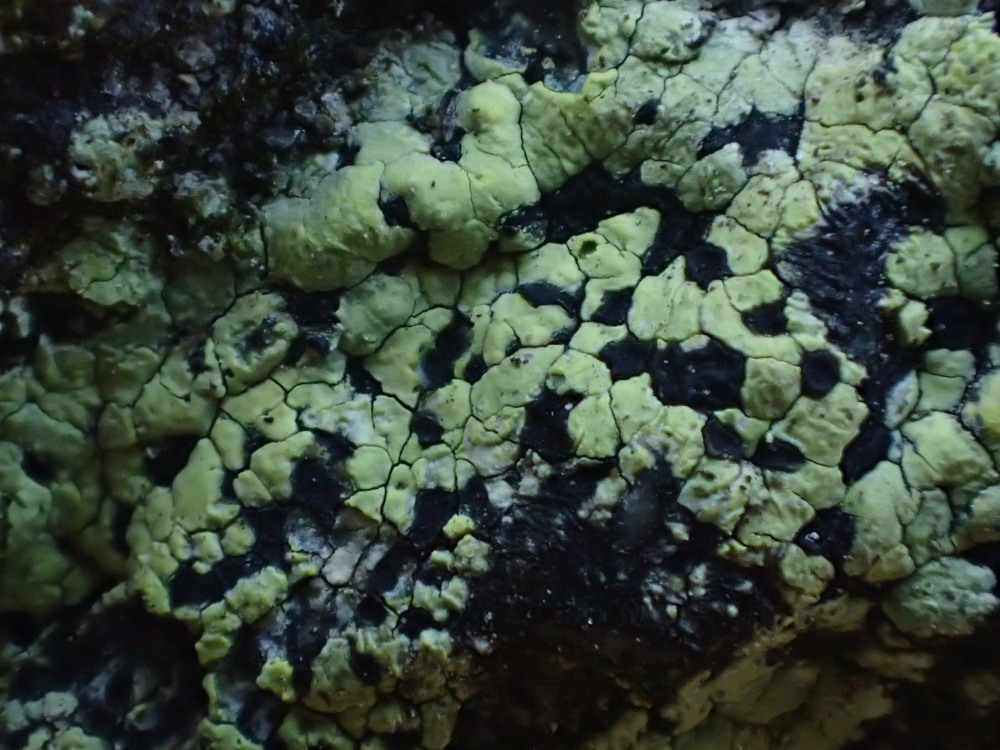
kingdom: Fungi
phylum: Ascomycota
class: Lecanoromycetes
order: Rhizocarpales
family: Rhizocarpaceae
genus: Rhizocarpon
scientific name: Rhizocarpon geographicum
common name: gulgrøn landkortlav
